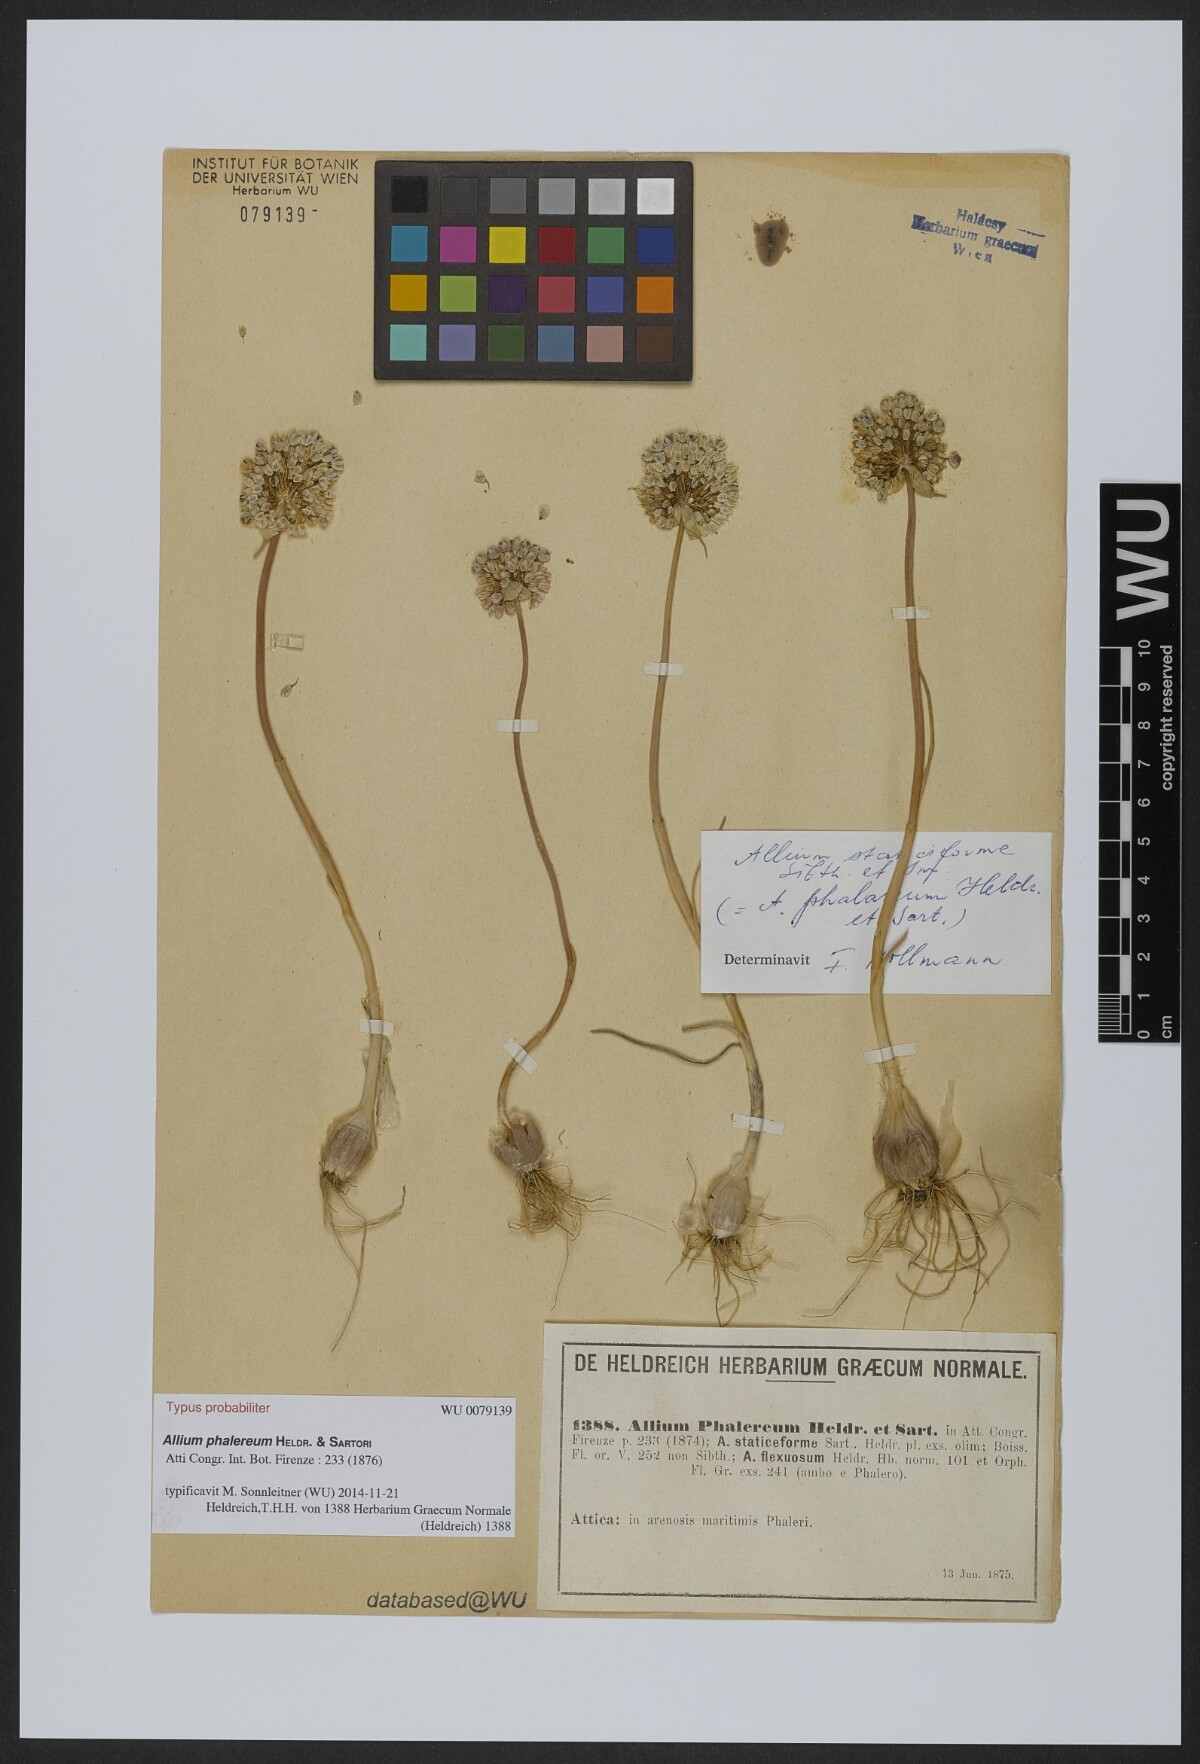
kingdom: Plantae
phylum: Tracheophyta
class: Liliopsida
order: Asparagales
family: Amaryllidaceae
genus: Allium
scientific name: Allium staticiforme
